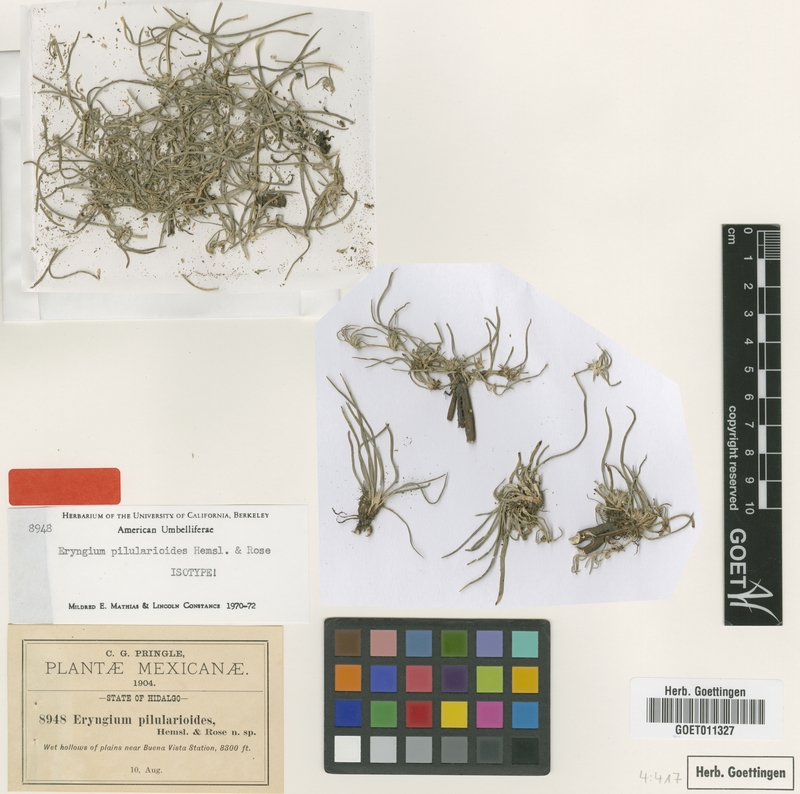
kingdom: Plantae
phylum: Tracheophyta
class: Magnoliopsida
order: Apiales
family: Apiaceae
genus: Eryngium
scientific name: Eryngium pilularioides
